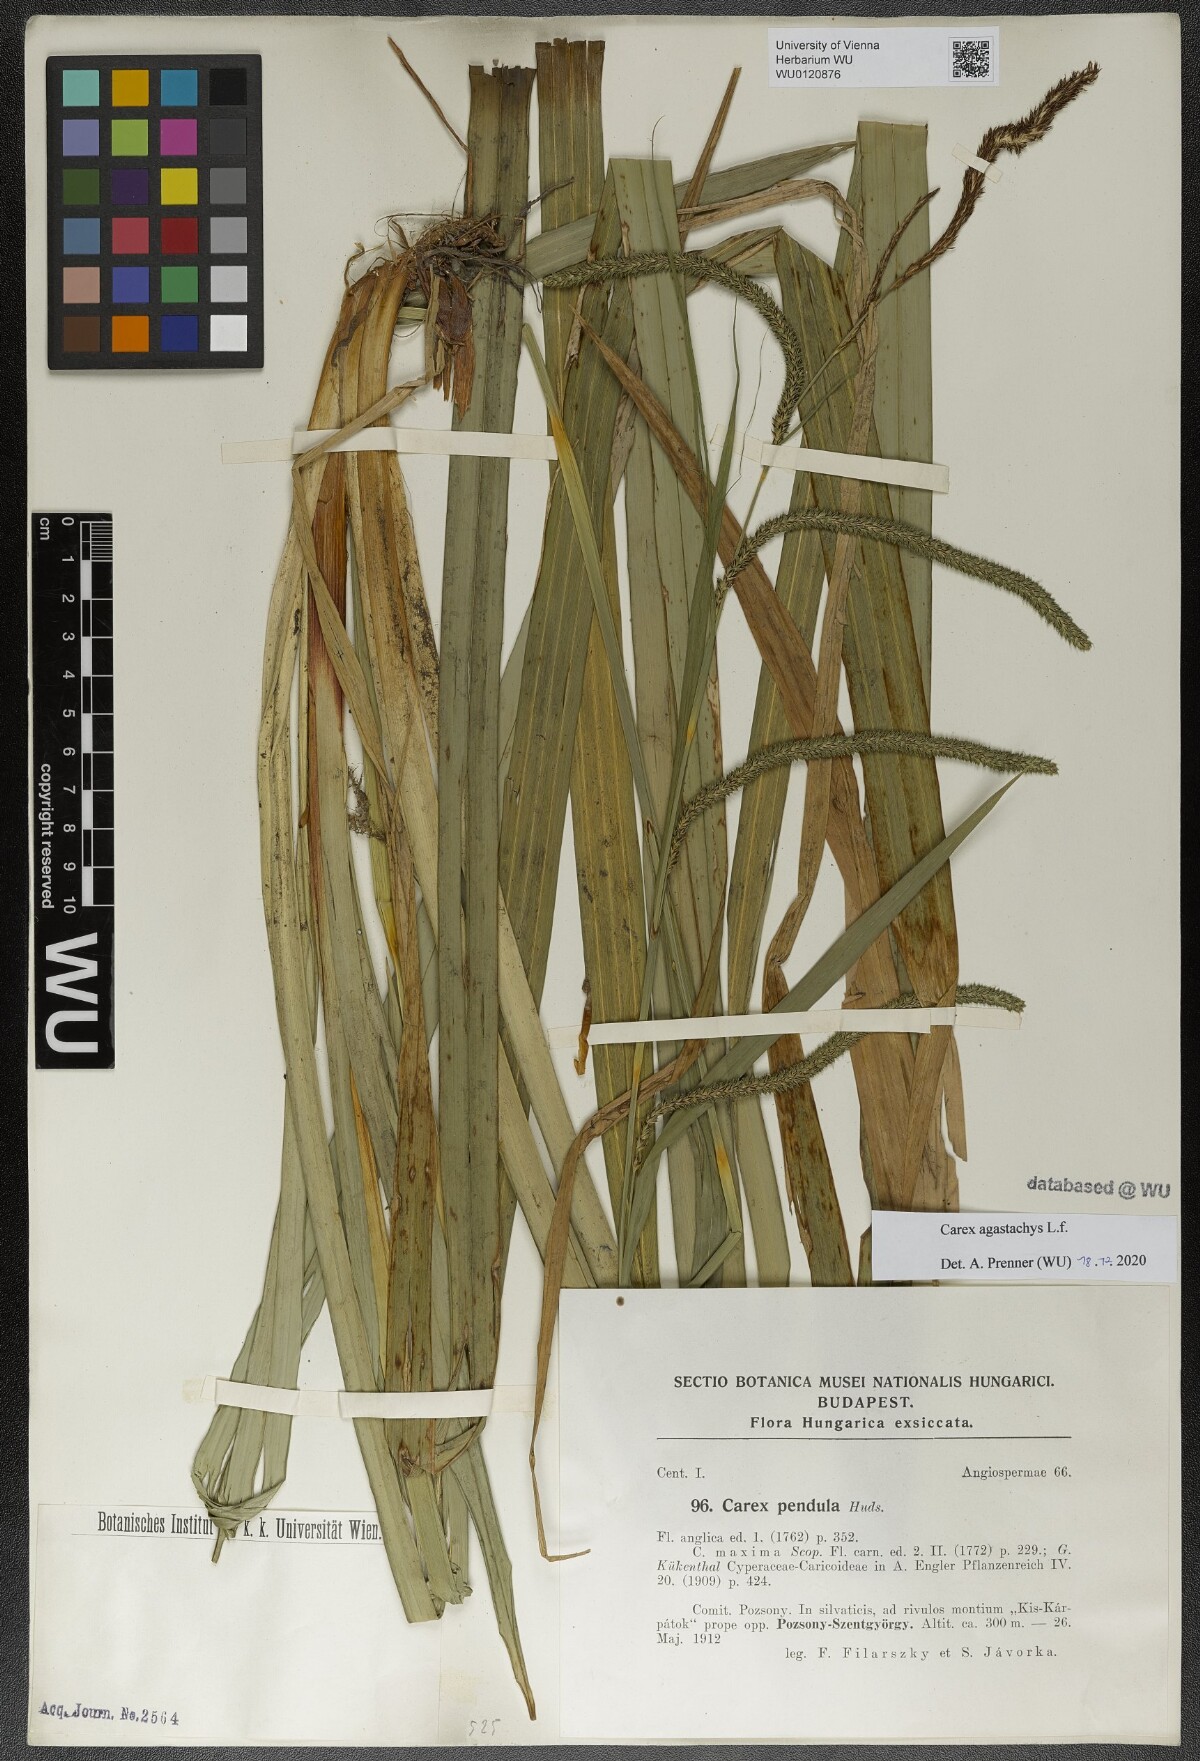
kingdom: Plantae
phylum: Tracheophyta
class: Liliopsida
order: Poales
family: Cyperaceae
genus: Carex
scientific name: Carex agastachys
